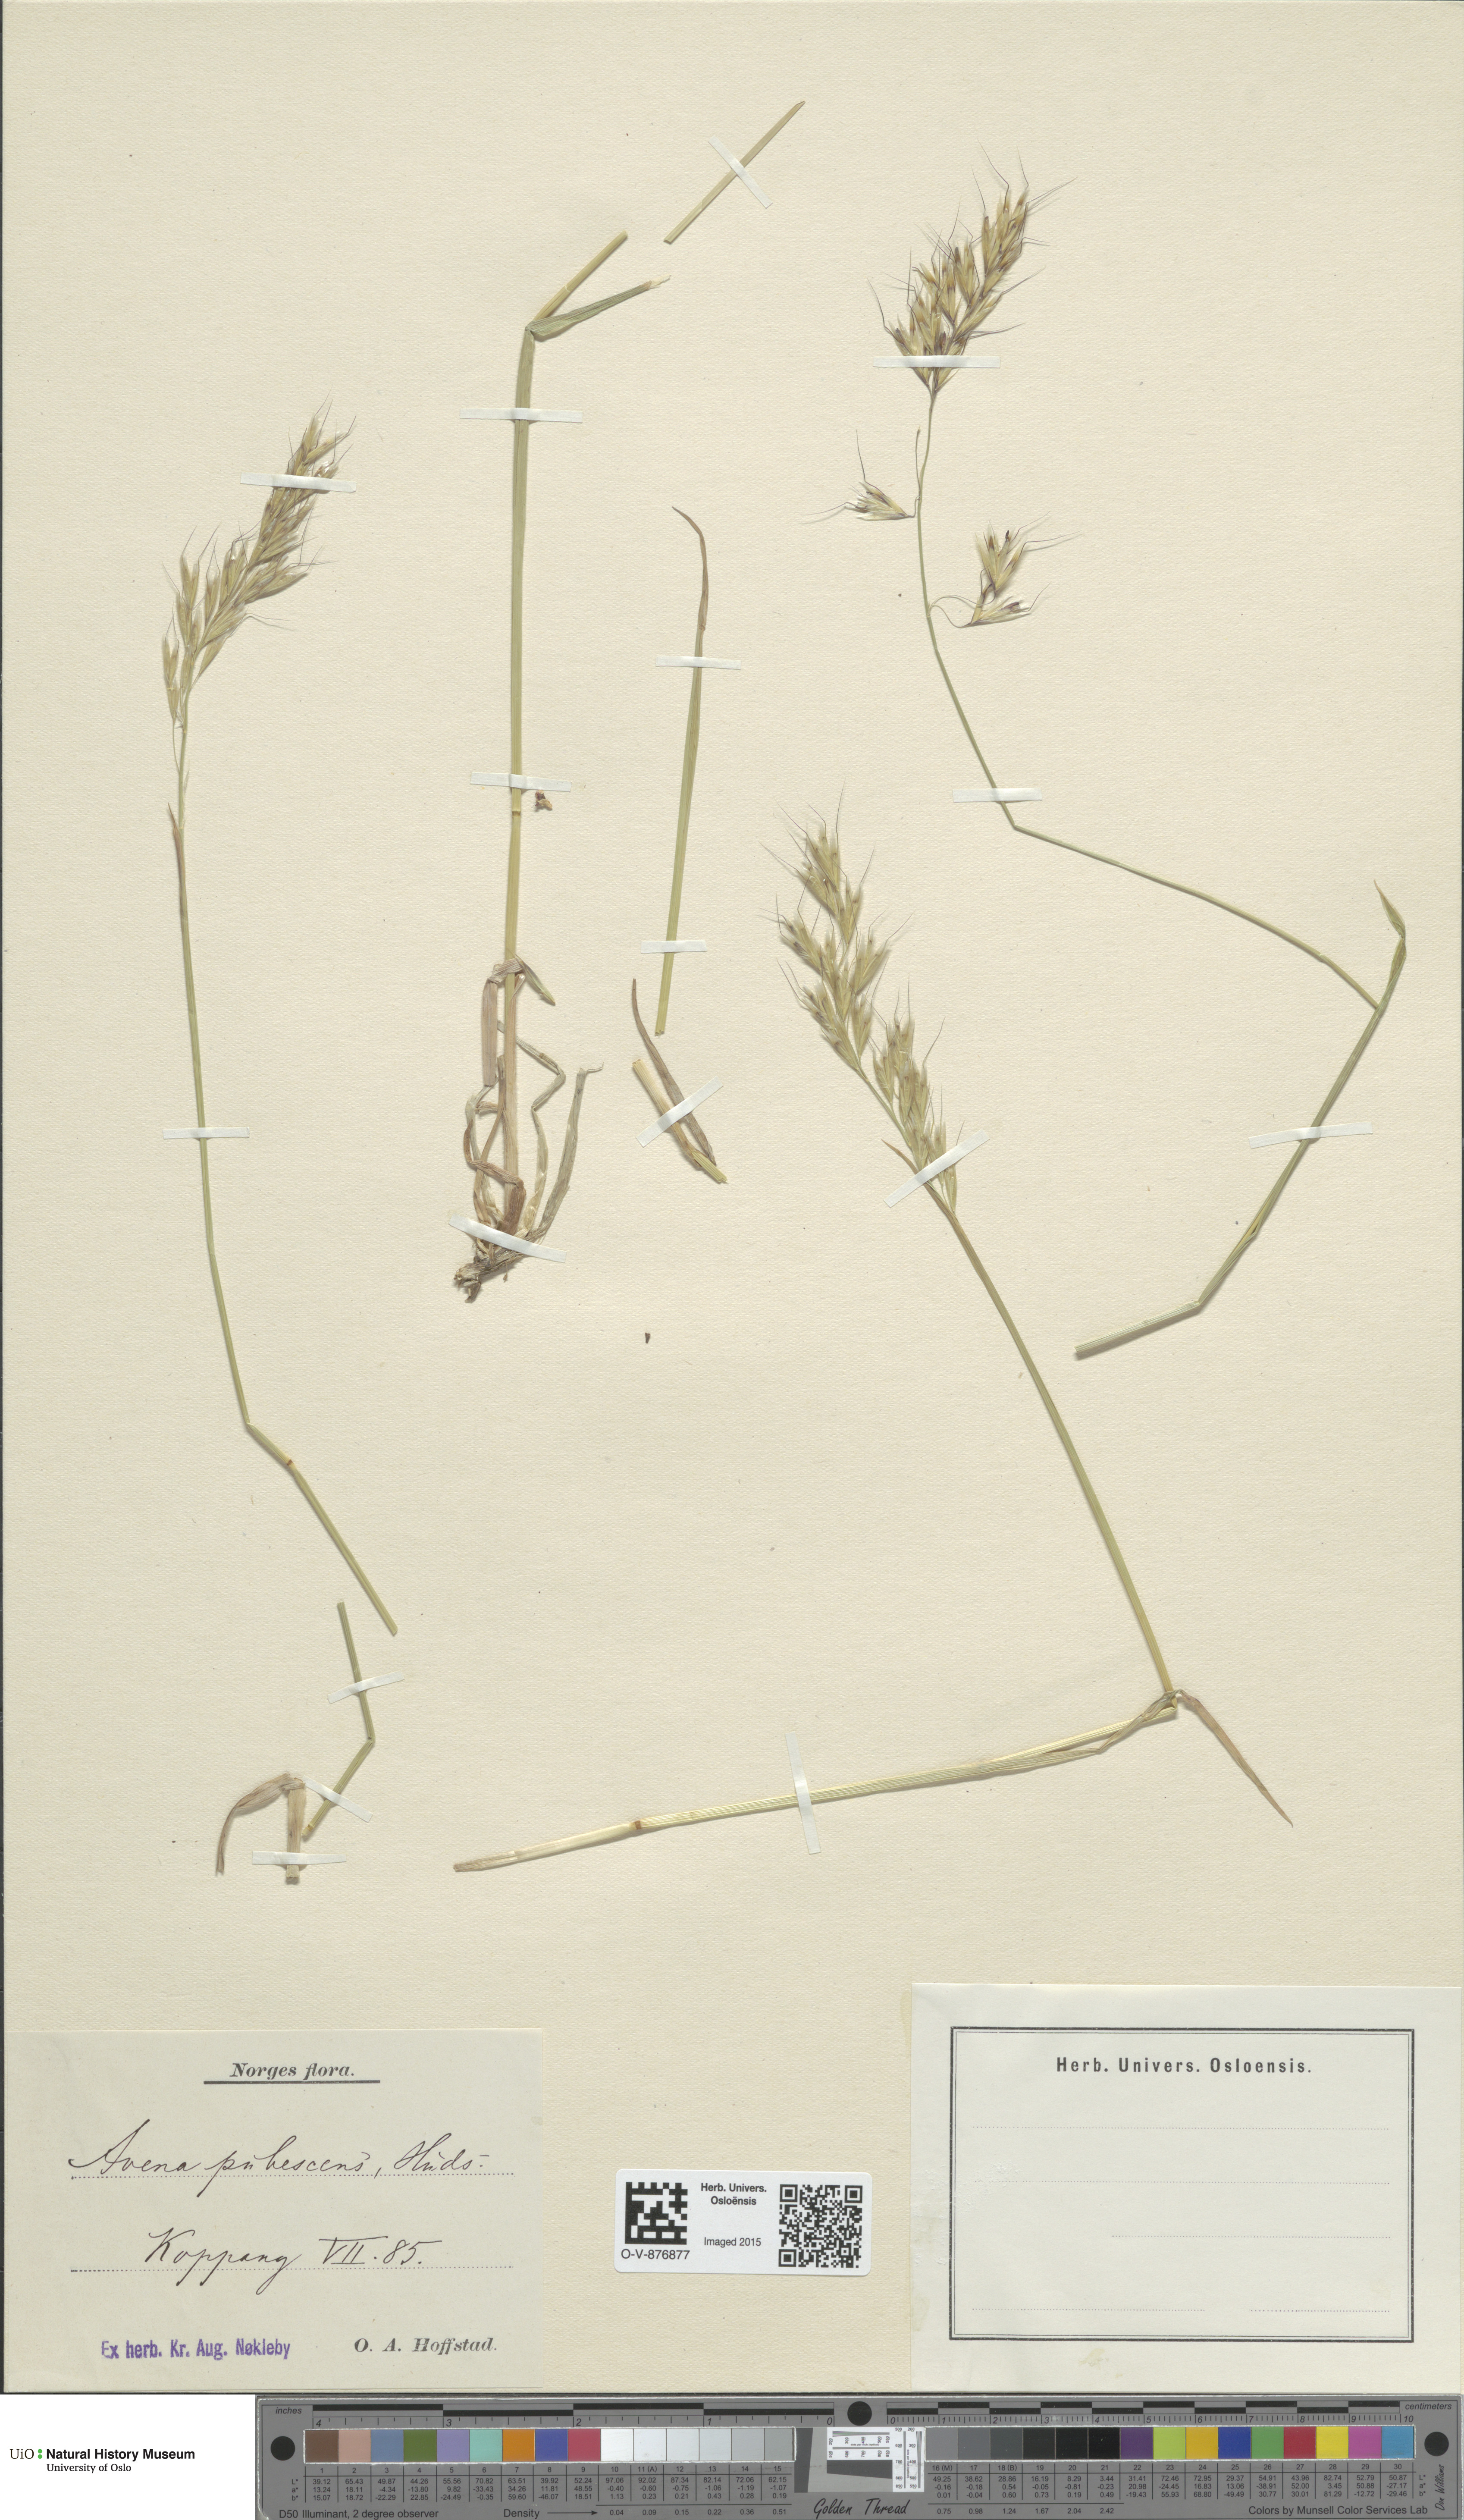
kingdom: Plantae
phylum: Tracheophyta
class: Liliopsida
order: Poales
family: Poaceae
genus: Avenula
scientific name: Avenula pubescens
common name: Downy alpine oatgrass
